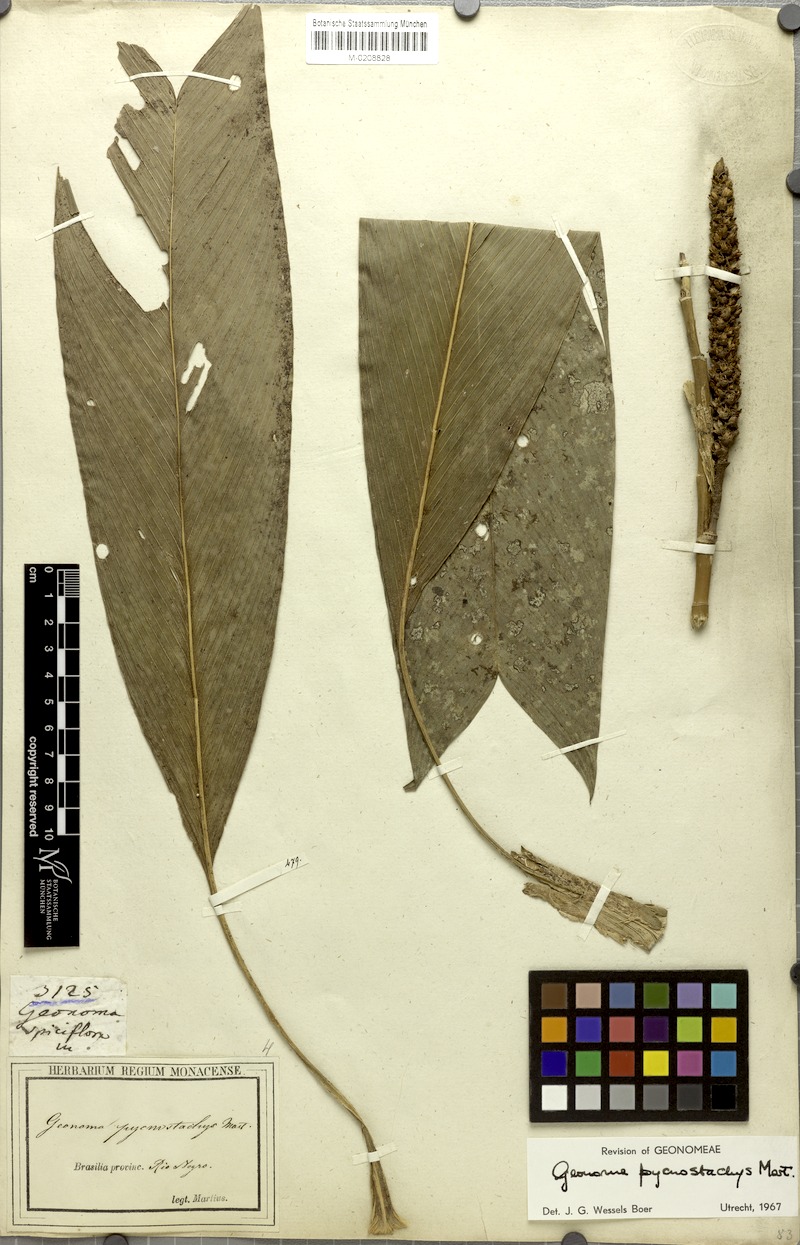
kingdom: Plantae
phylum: Tracheophyta
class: Liliopsida
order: Arecales
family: Arecaceae
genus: Geonoma
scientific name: Geonoma stricta
